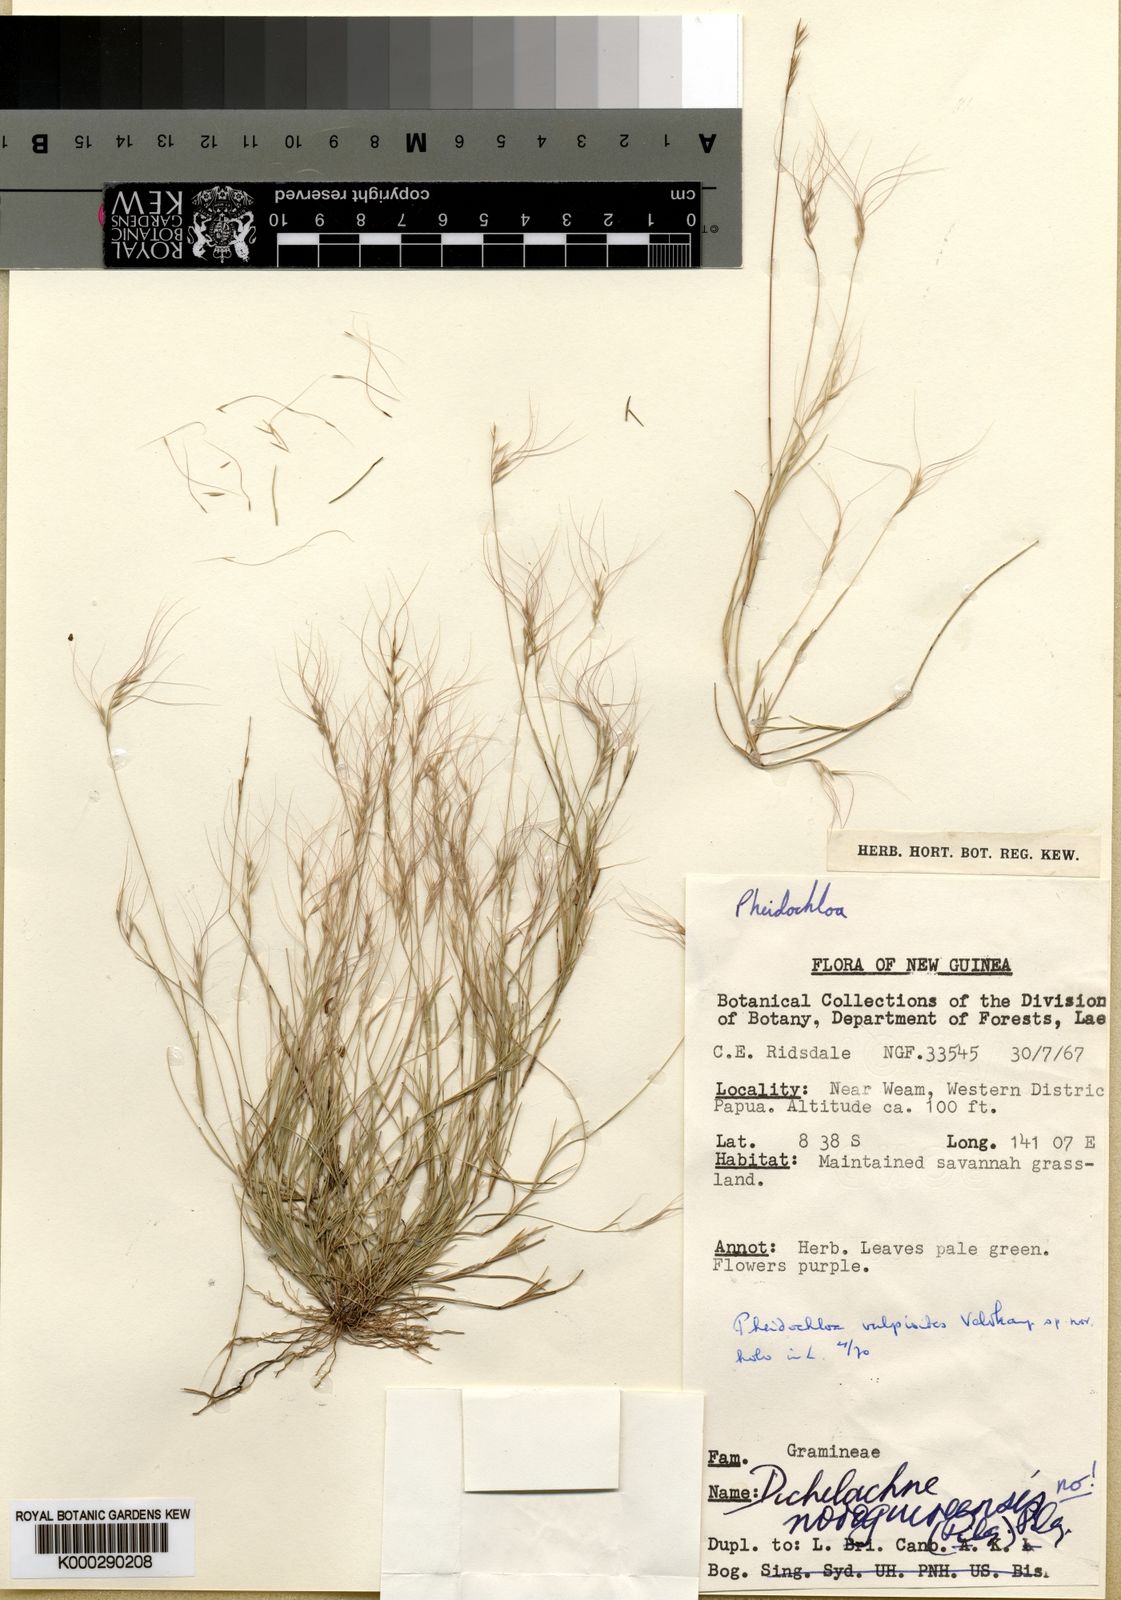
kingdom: Plantae
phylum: Tracheophyta
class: Liliopsida
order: Poales
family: Poaceae
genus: Pheidochloa
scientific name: Pheidochloa vulpioides
